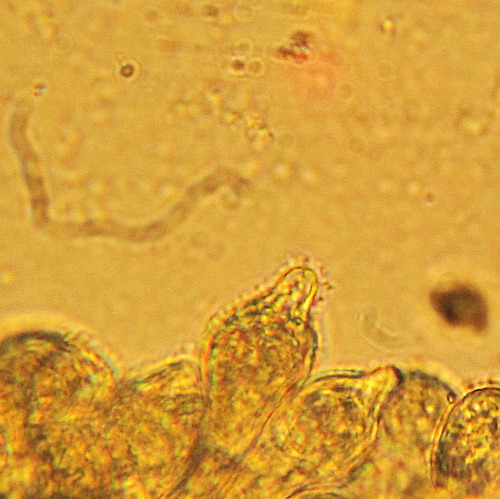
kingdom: Fungi
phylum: Basidiomycota
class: Agaricomycetes
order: Agaricales
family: Psathyrellaceae
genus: Lacrymaria
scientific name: Lacrymaria glareosa
